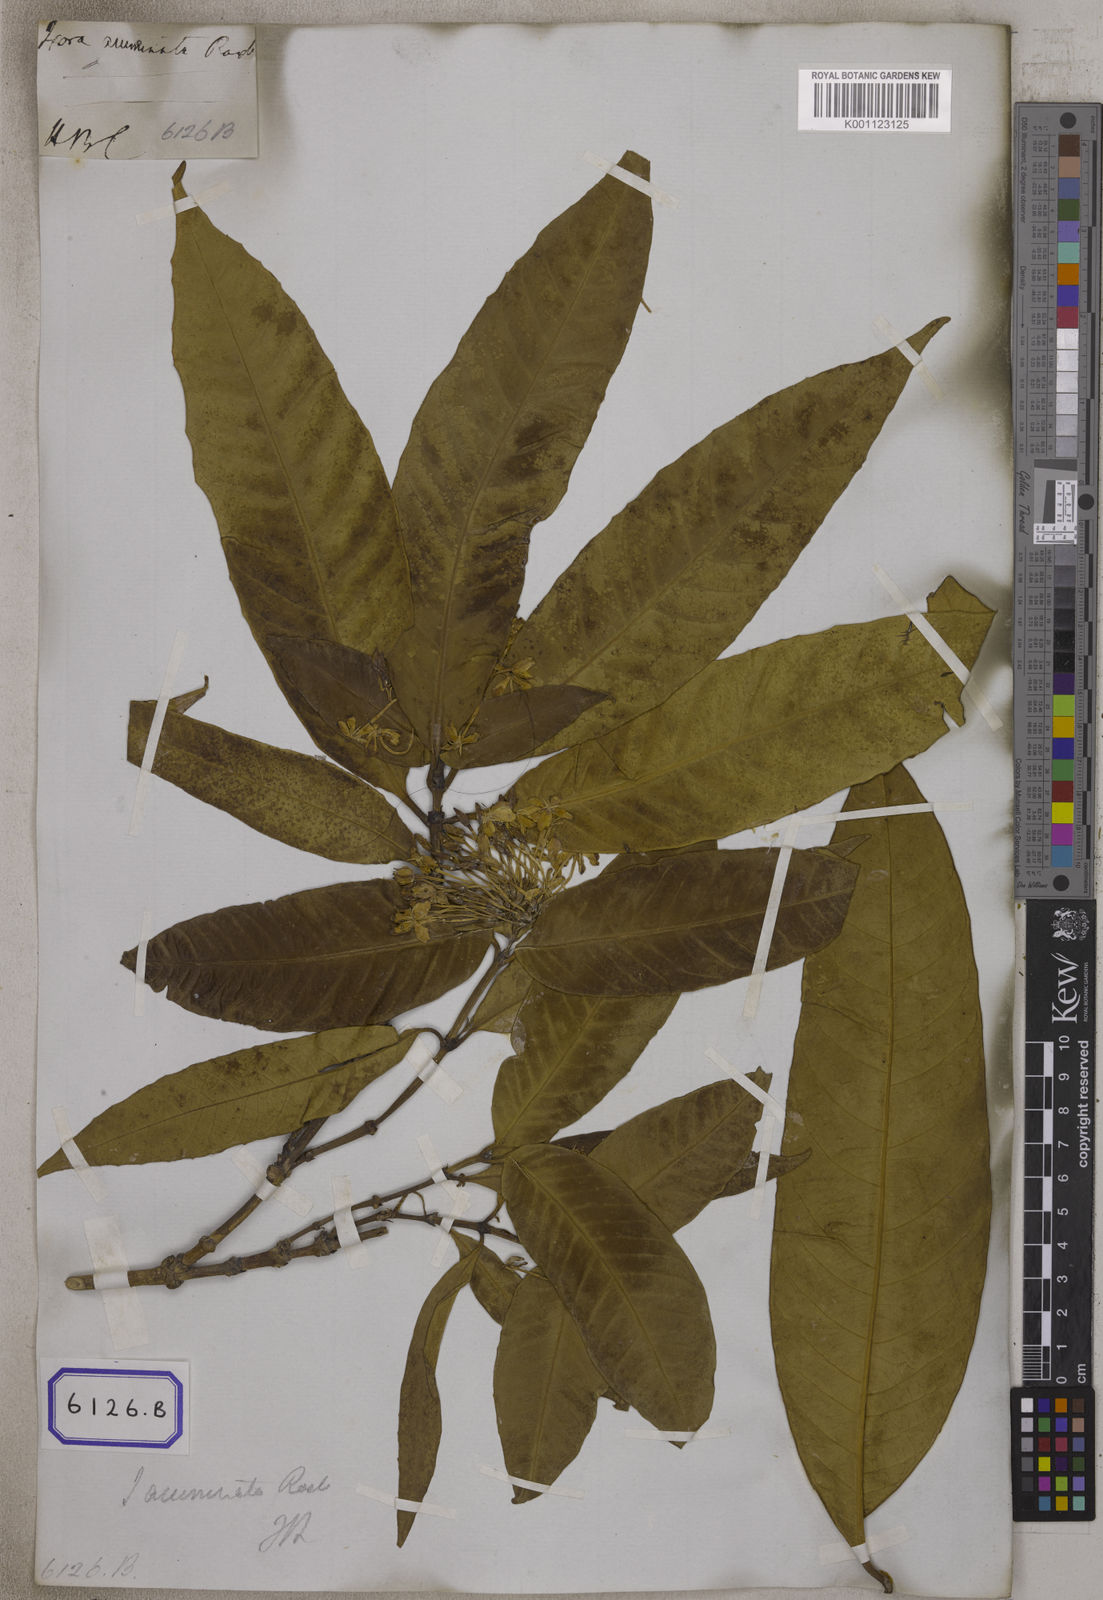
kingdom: Plantae
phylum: Tracheophyta
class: Magnoliopsida
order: Gentianales
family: Rubiaceae
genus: Ixora
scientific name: Ixora acuminata
